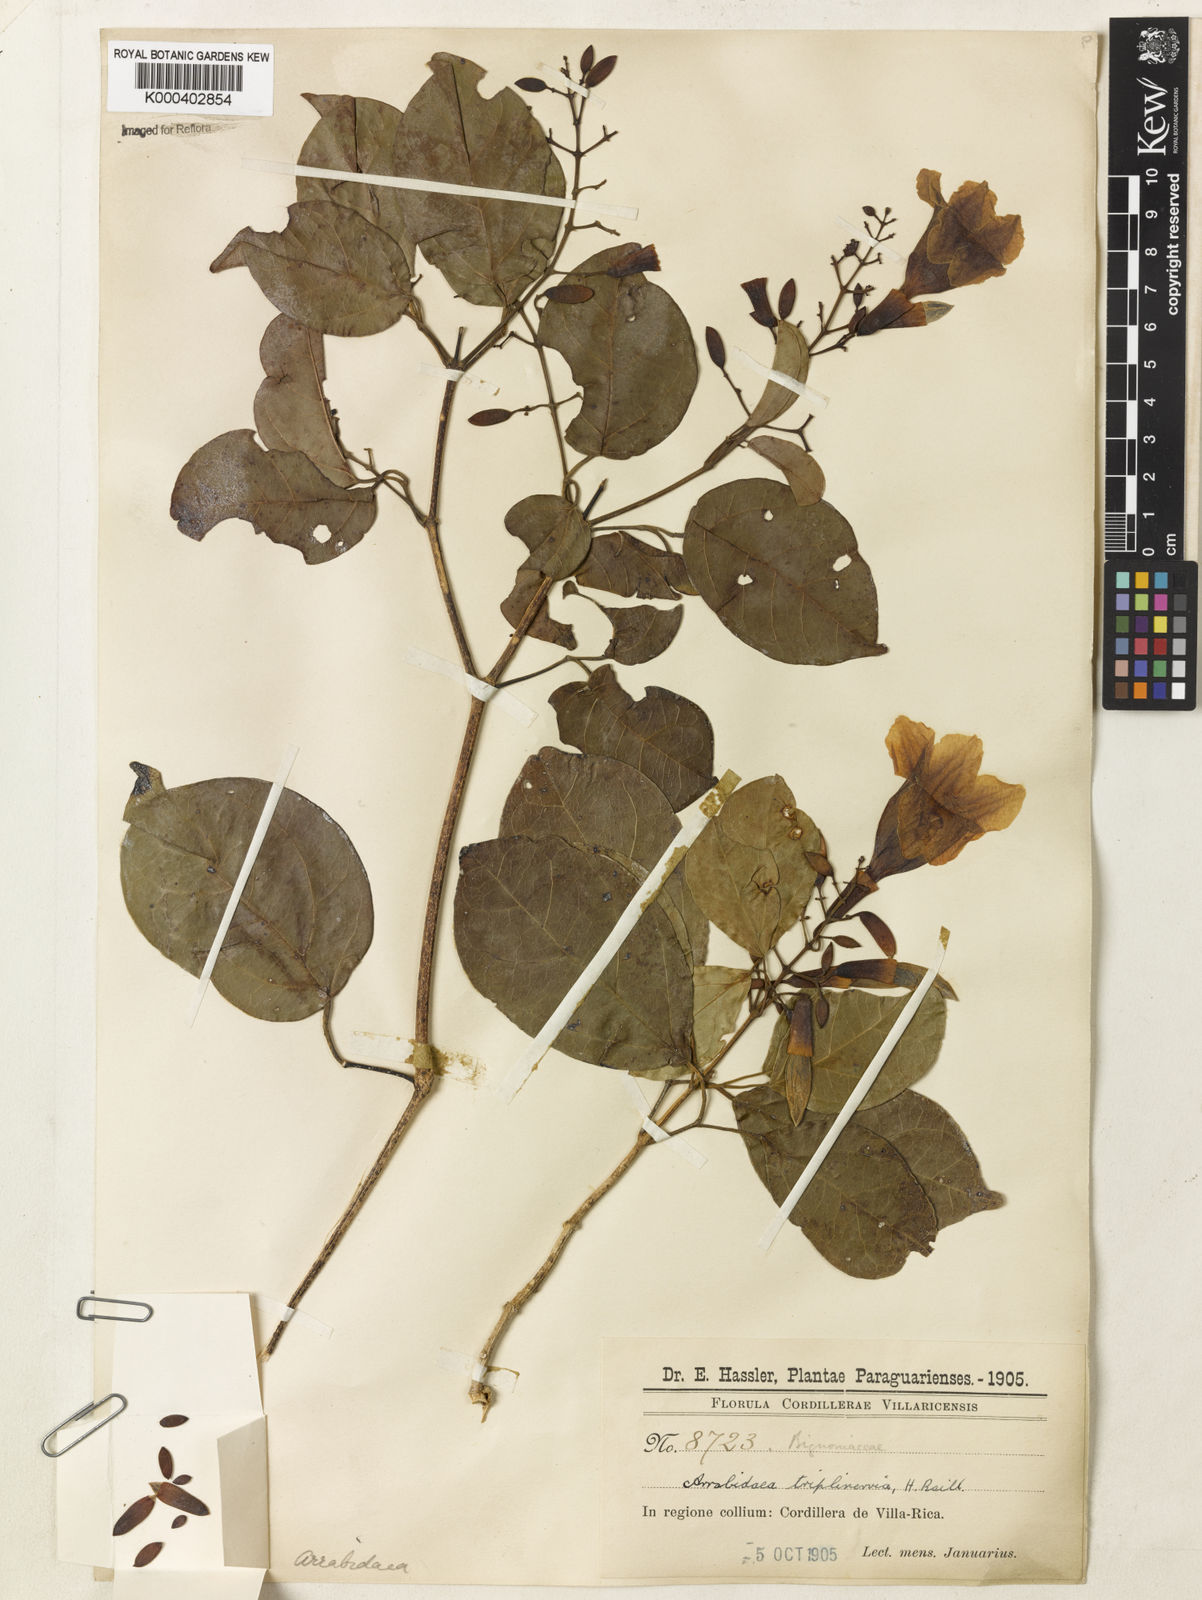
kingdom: Plantae
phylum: Tracheophyta
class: Magnoliopsida
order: Lamiales
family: Bignoniaceae
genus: Fridericia
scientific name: Fridericia triplinervia
